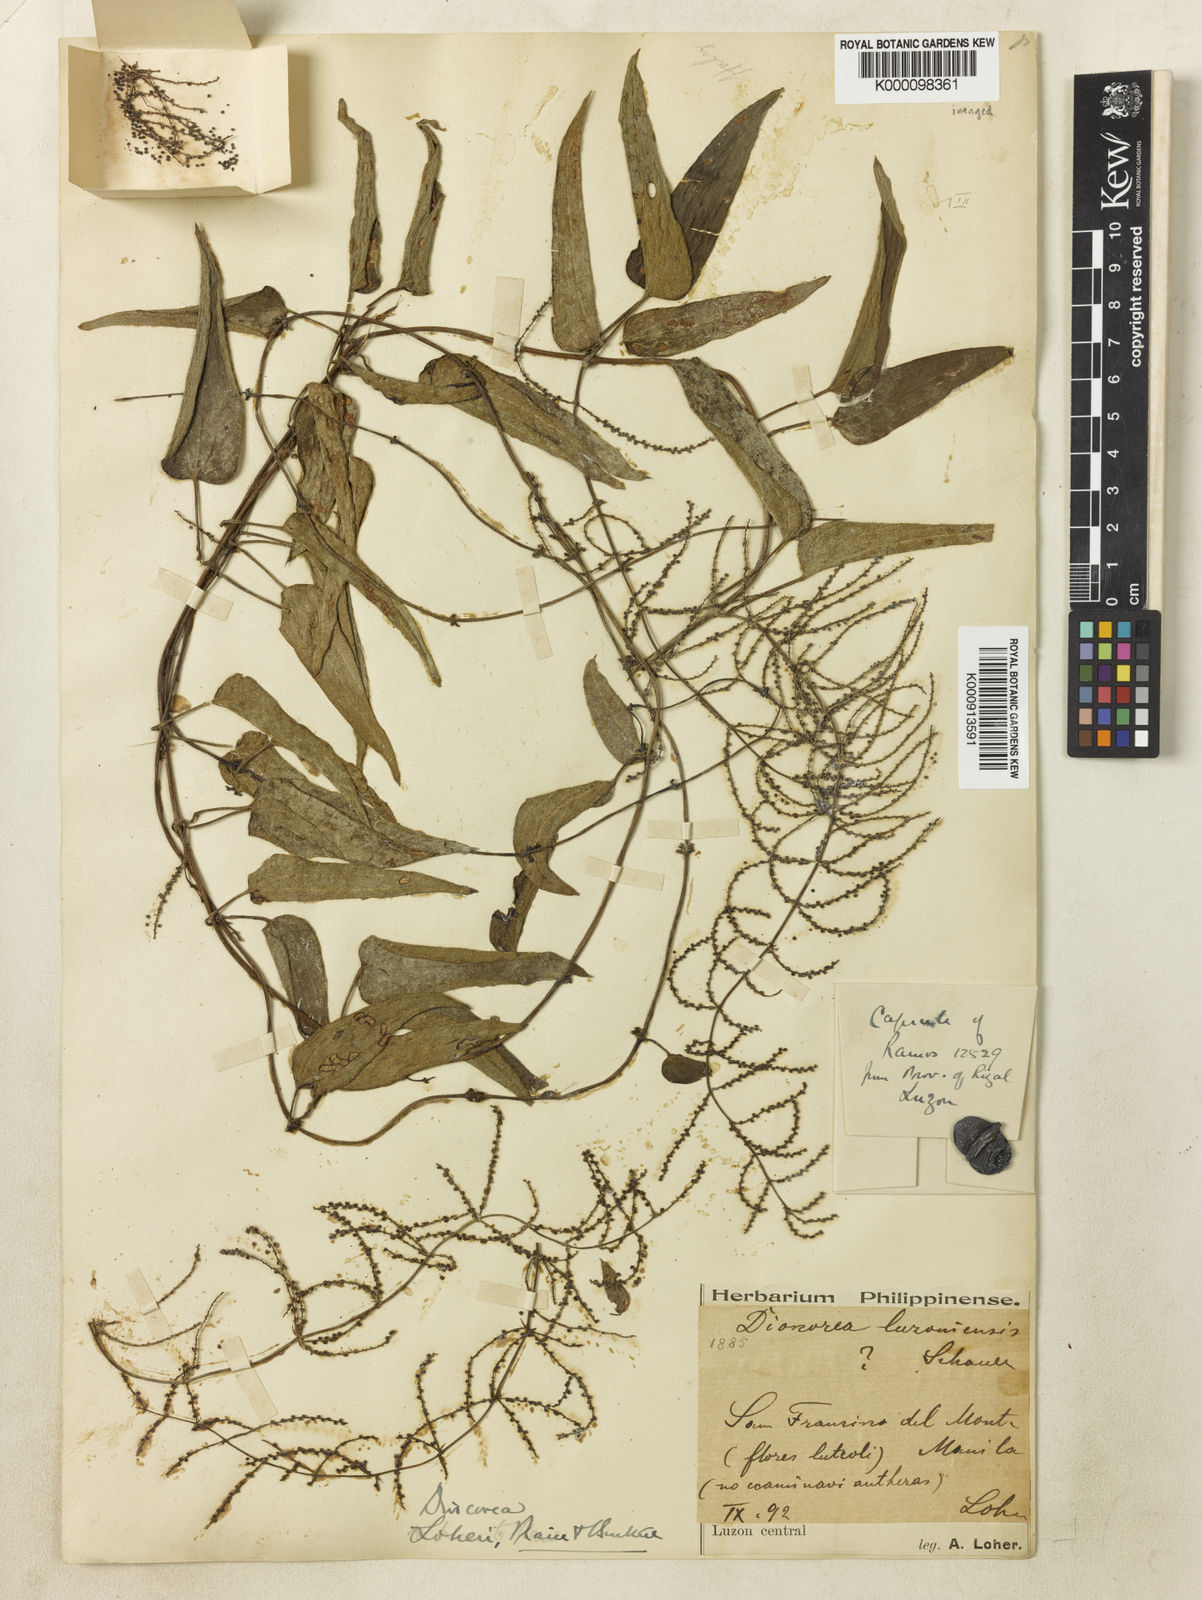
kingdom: Plantae
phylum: Tracheophyta
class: Liliopsida
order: Dioscoreales
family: Dioscoreaceae
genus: Dioscorea
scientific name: Dioscorea loheri
